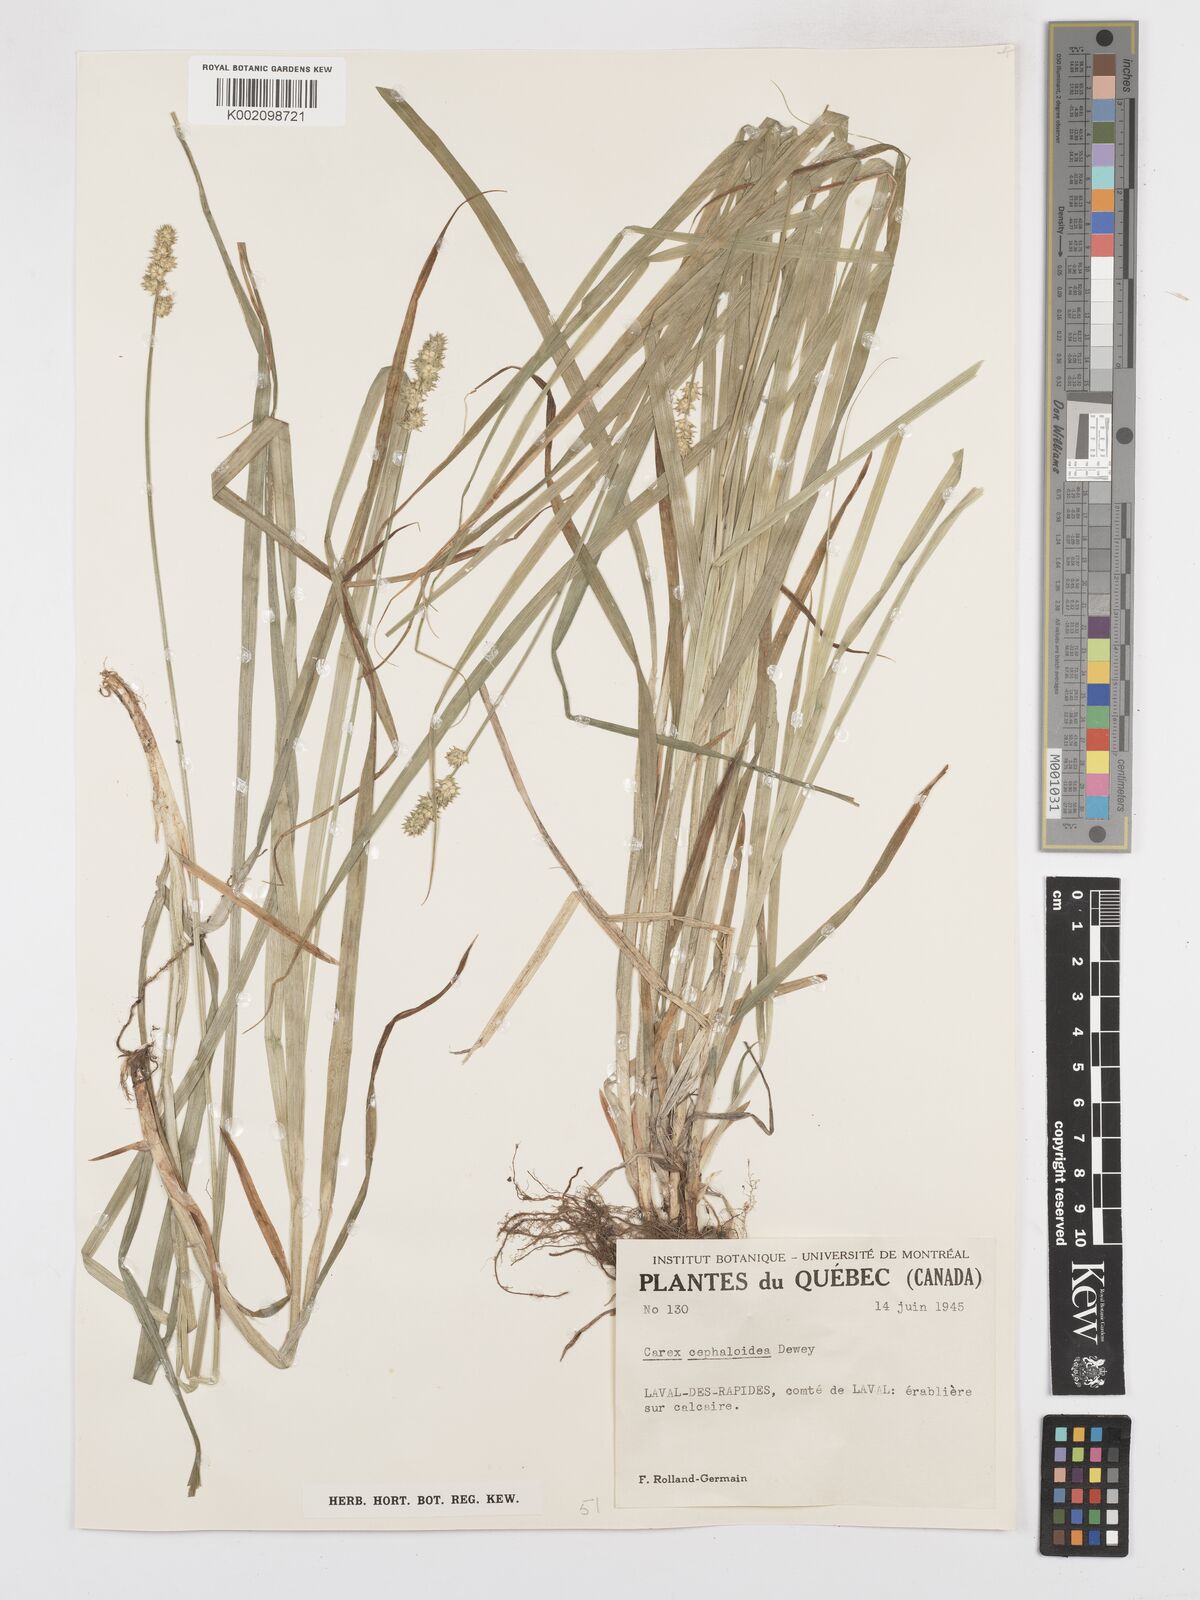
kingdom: Plantae
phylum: Tracheophyta
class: Liliopsida
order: Poales
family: Cyperaceae
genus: Carex
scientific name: Carex cephaloidea
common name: Thin-leaved sedge
